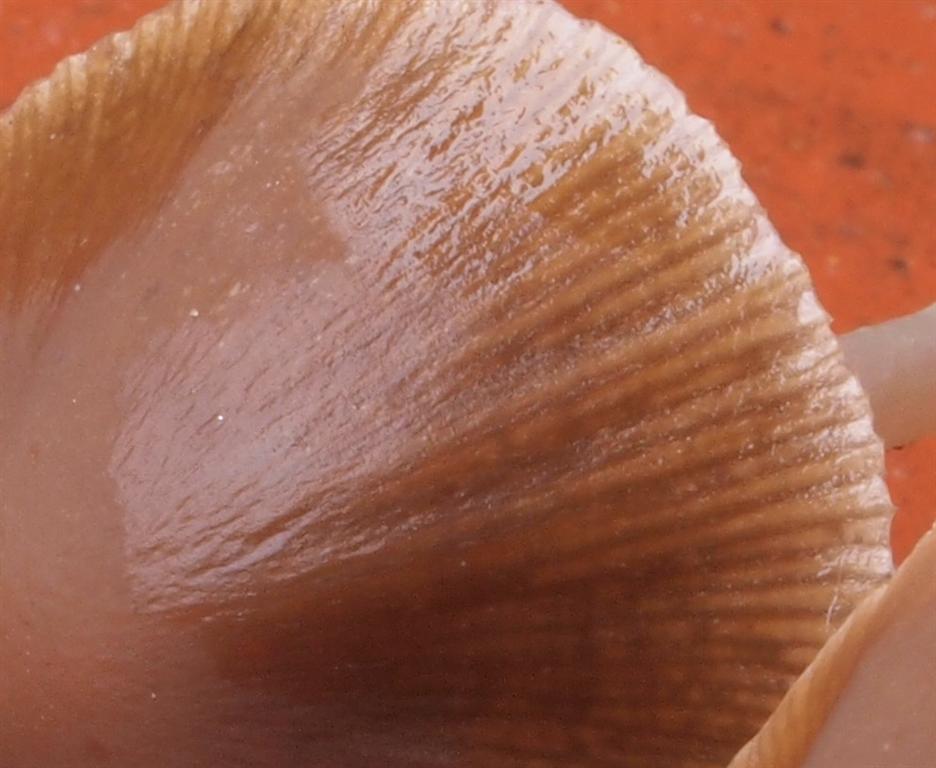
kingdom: Fungi
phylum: Basidiomycota
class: Agaricomycetes
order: Agaricales
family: Psathyrellaceae
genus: Psathyrella
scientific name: Psathyrella microrhiza
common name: rod-mørkhat
